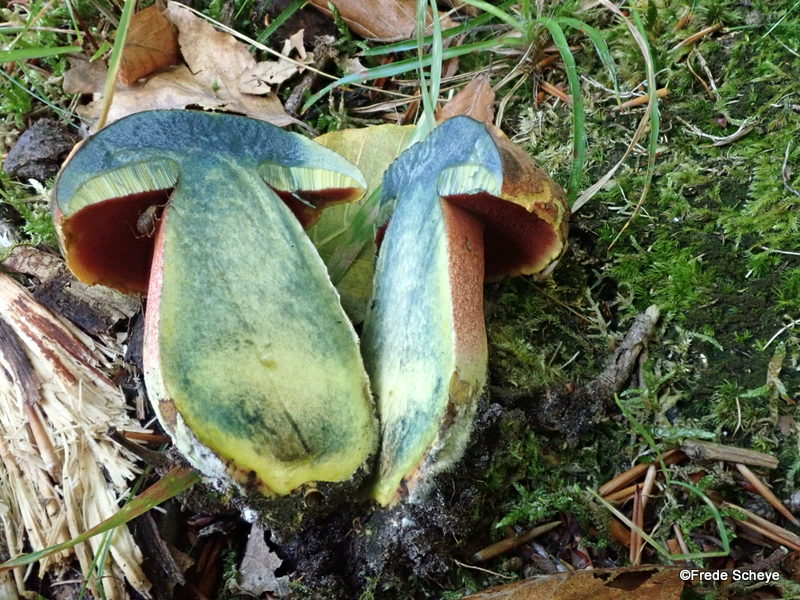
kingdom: Fungi
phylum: Basidiomycota
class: Agaricomycetes
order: Boletales
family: Boletaceae
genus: Neoboletus
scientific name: Neoboletus erythropus
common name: punktstokket indigorørhat
